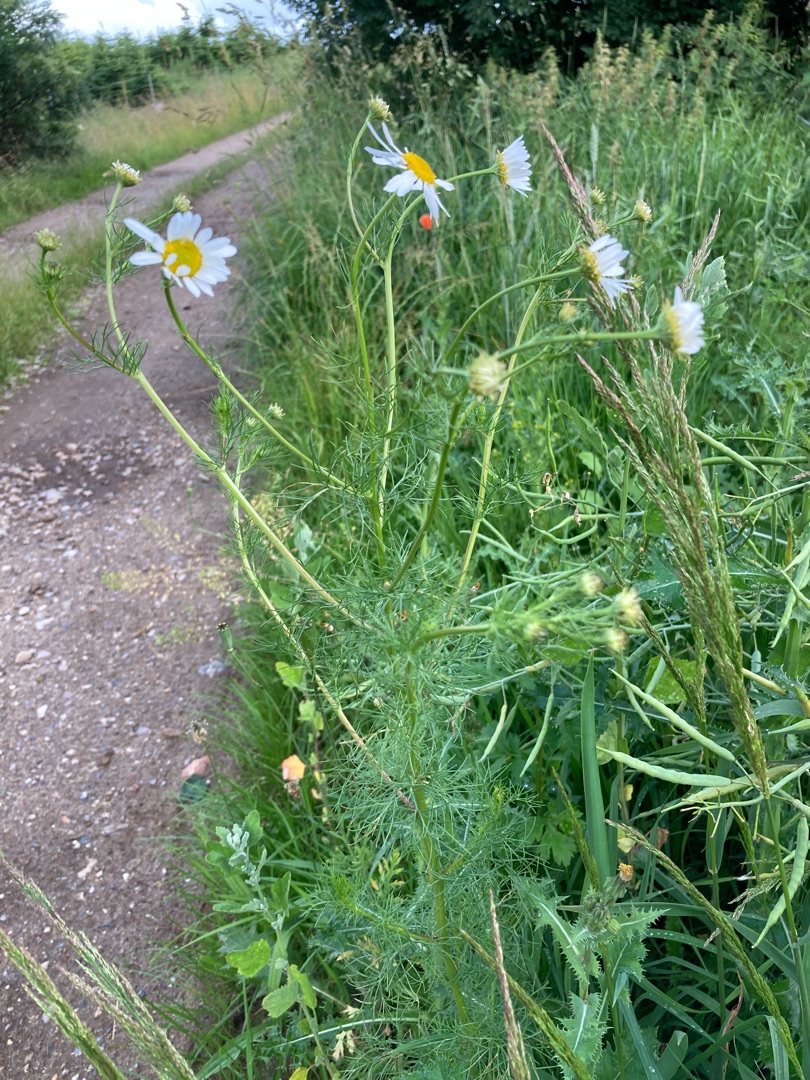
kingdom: Plantae
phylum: Tracheophyta
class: Magnoliopsida
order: Asterales
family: Asteraceae
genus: Tripleurospermum
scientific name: Tripleurospermum inodorum
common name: Lugtløs kamille
